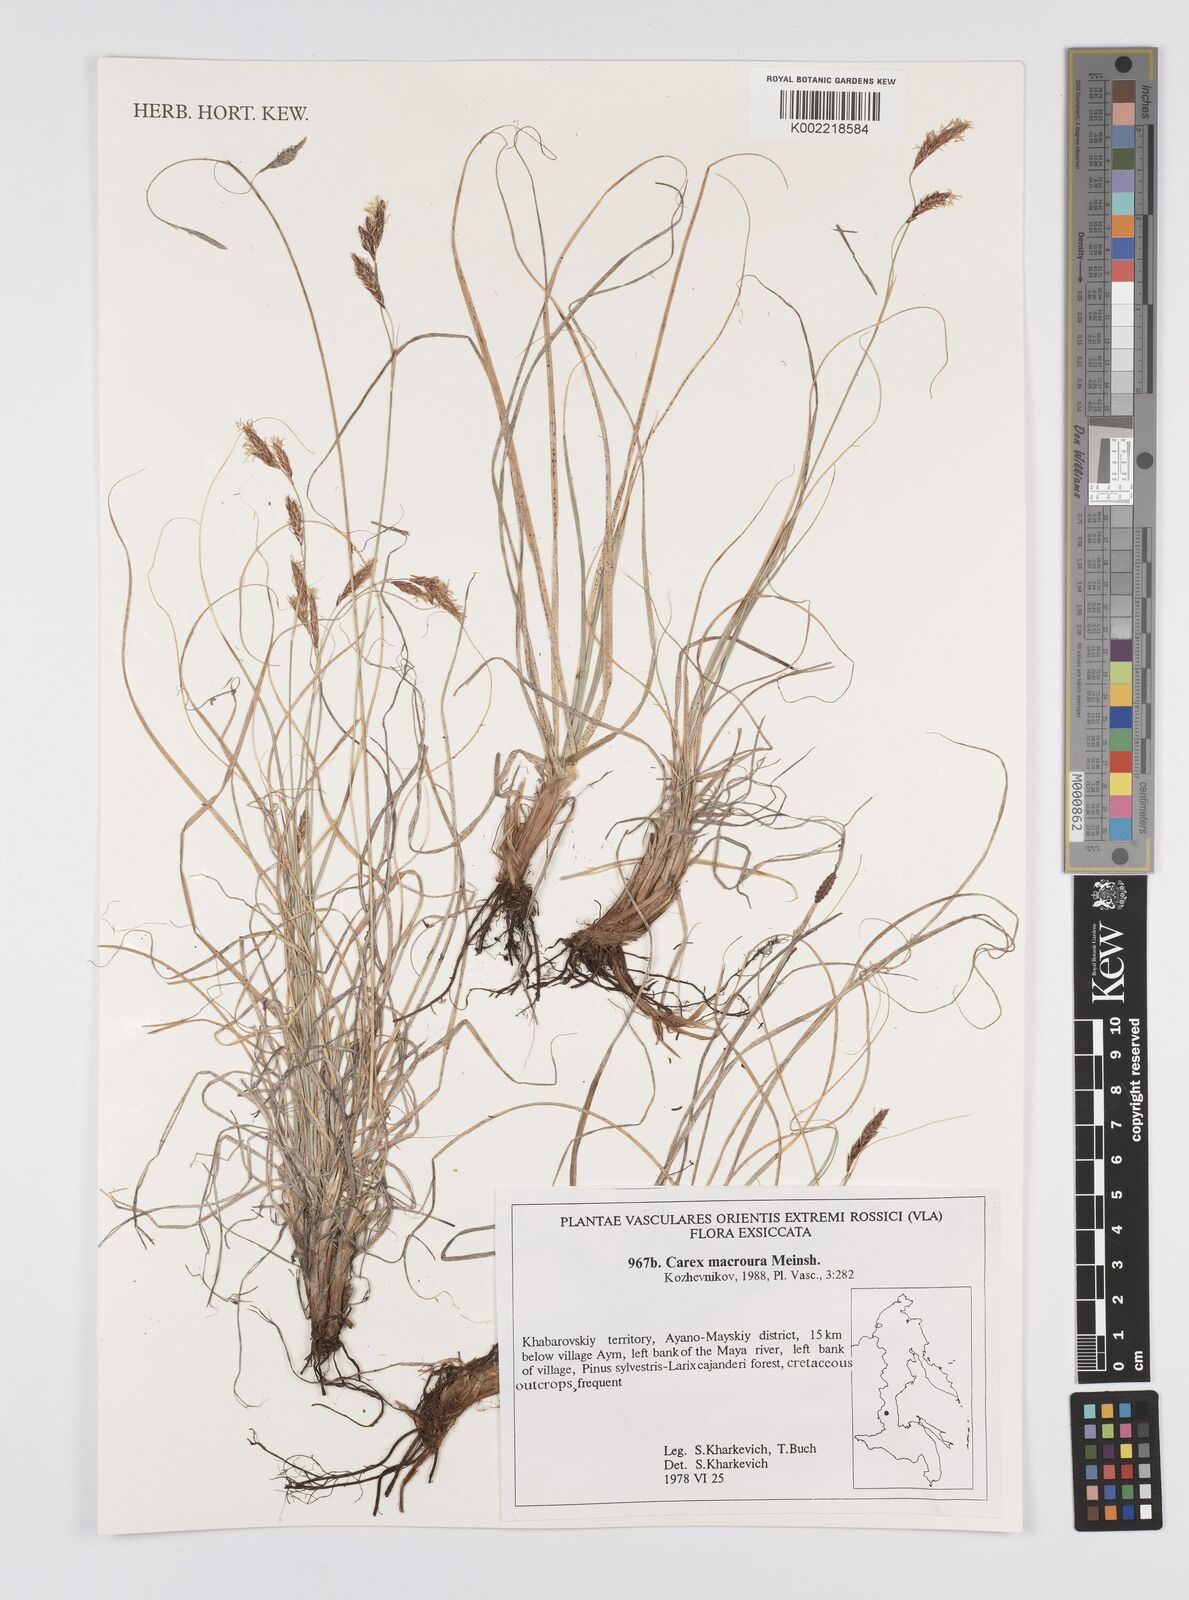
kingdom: Plantae
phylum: Tracheophyta
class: Liliopsida
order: Poales
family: Cyperaceae
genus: Carex
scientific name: Carex pediformis
